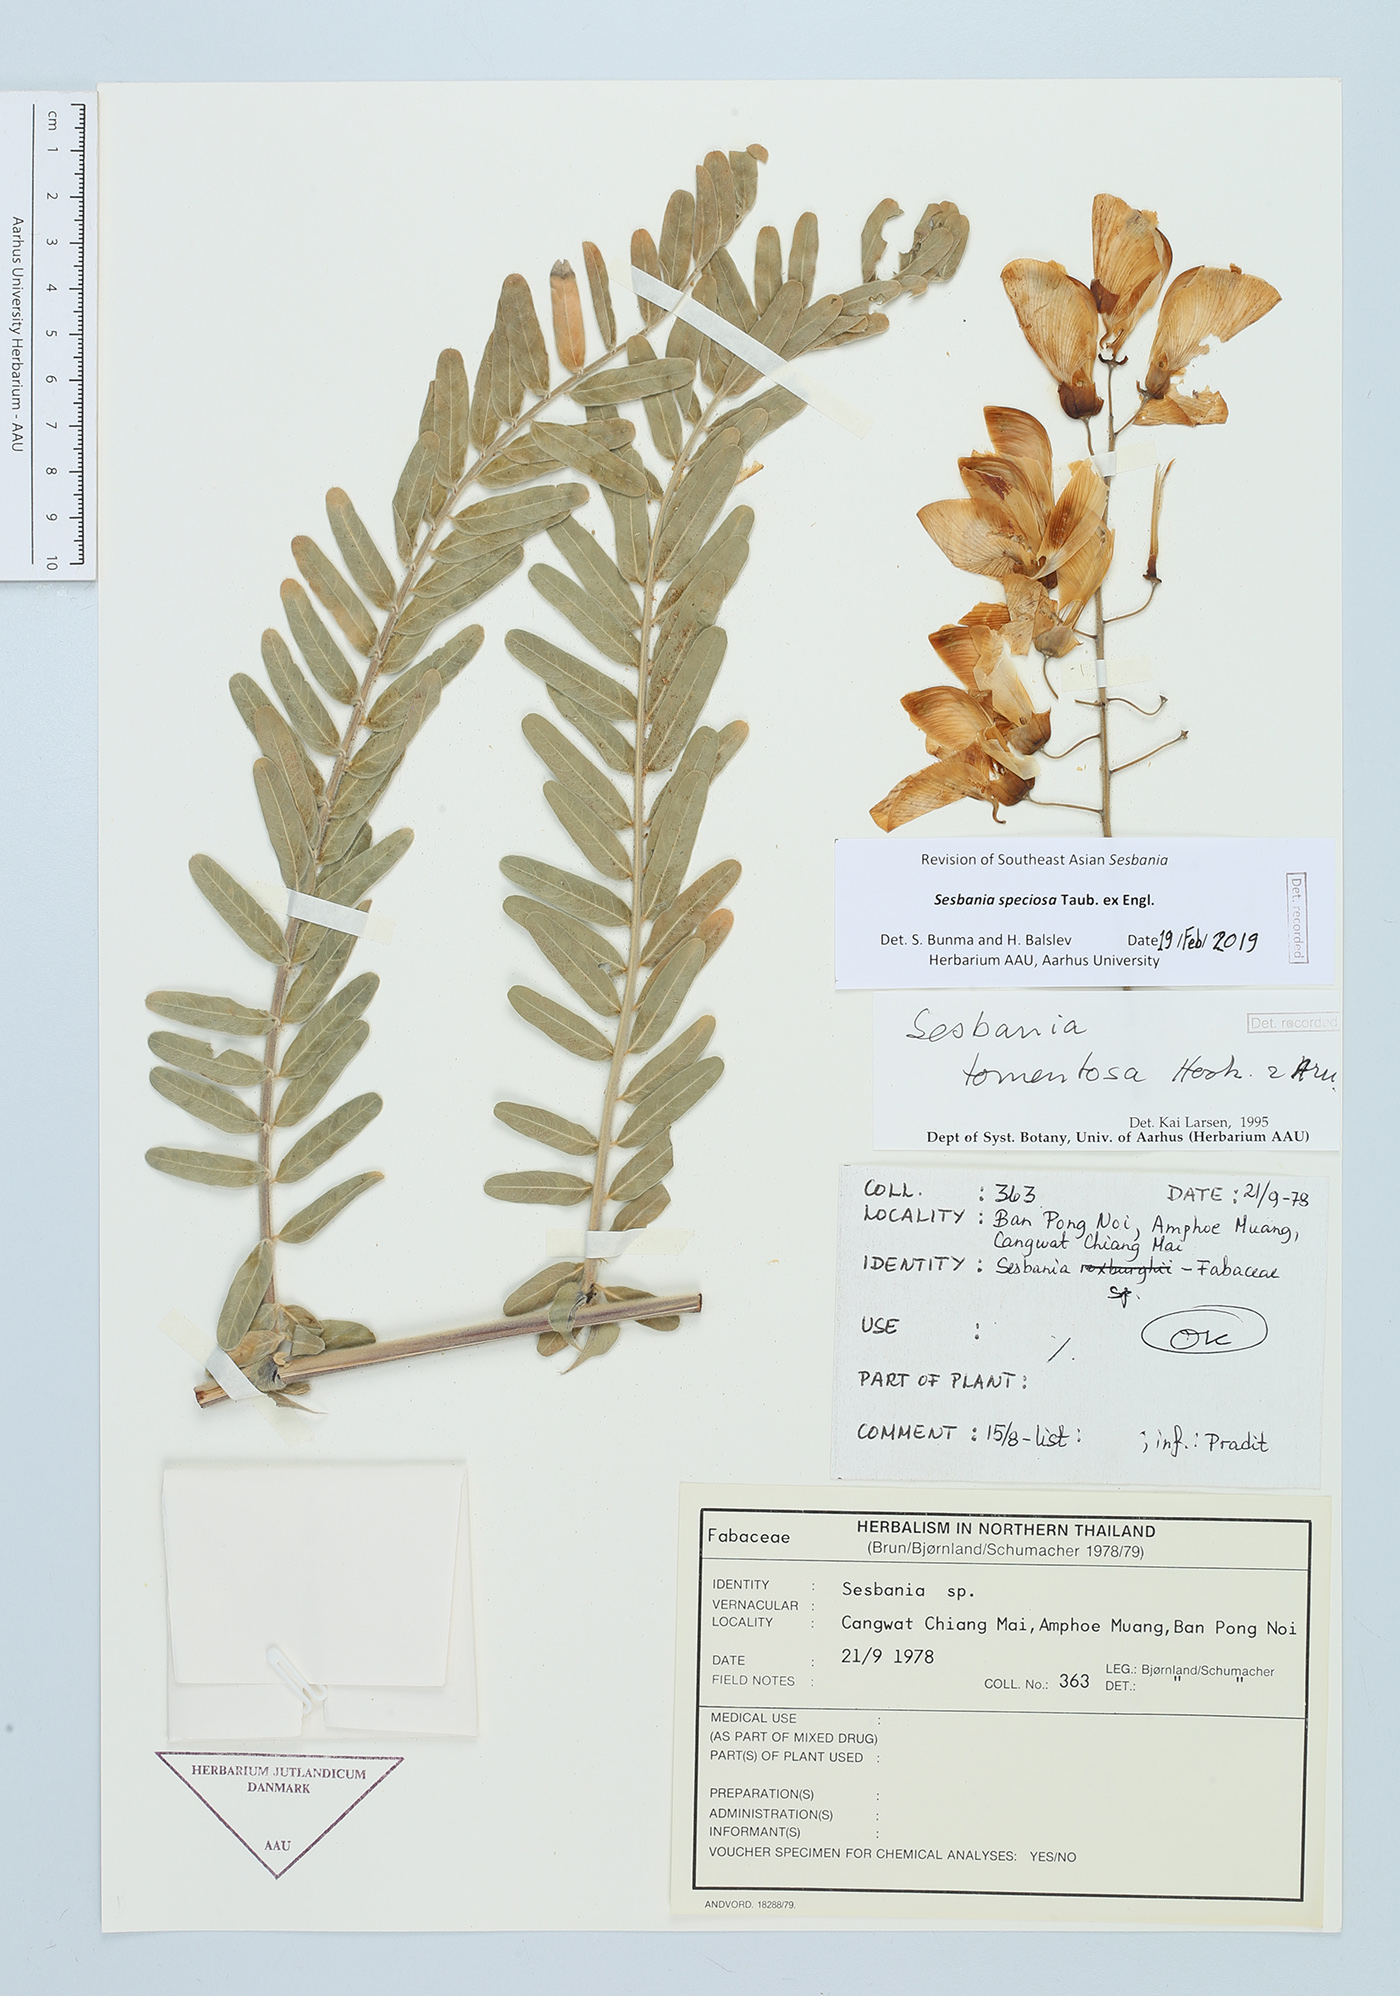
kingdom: Plantae
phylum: Tracheophyta
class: Magnoliopsida
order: Fabales
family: Fabaceae
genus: Sesbania
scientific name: Sesbania speciosa
